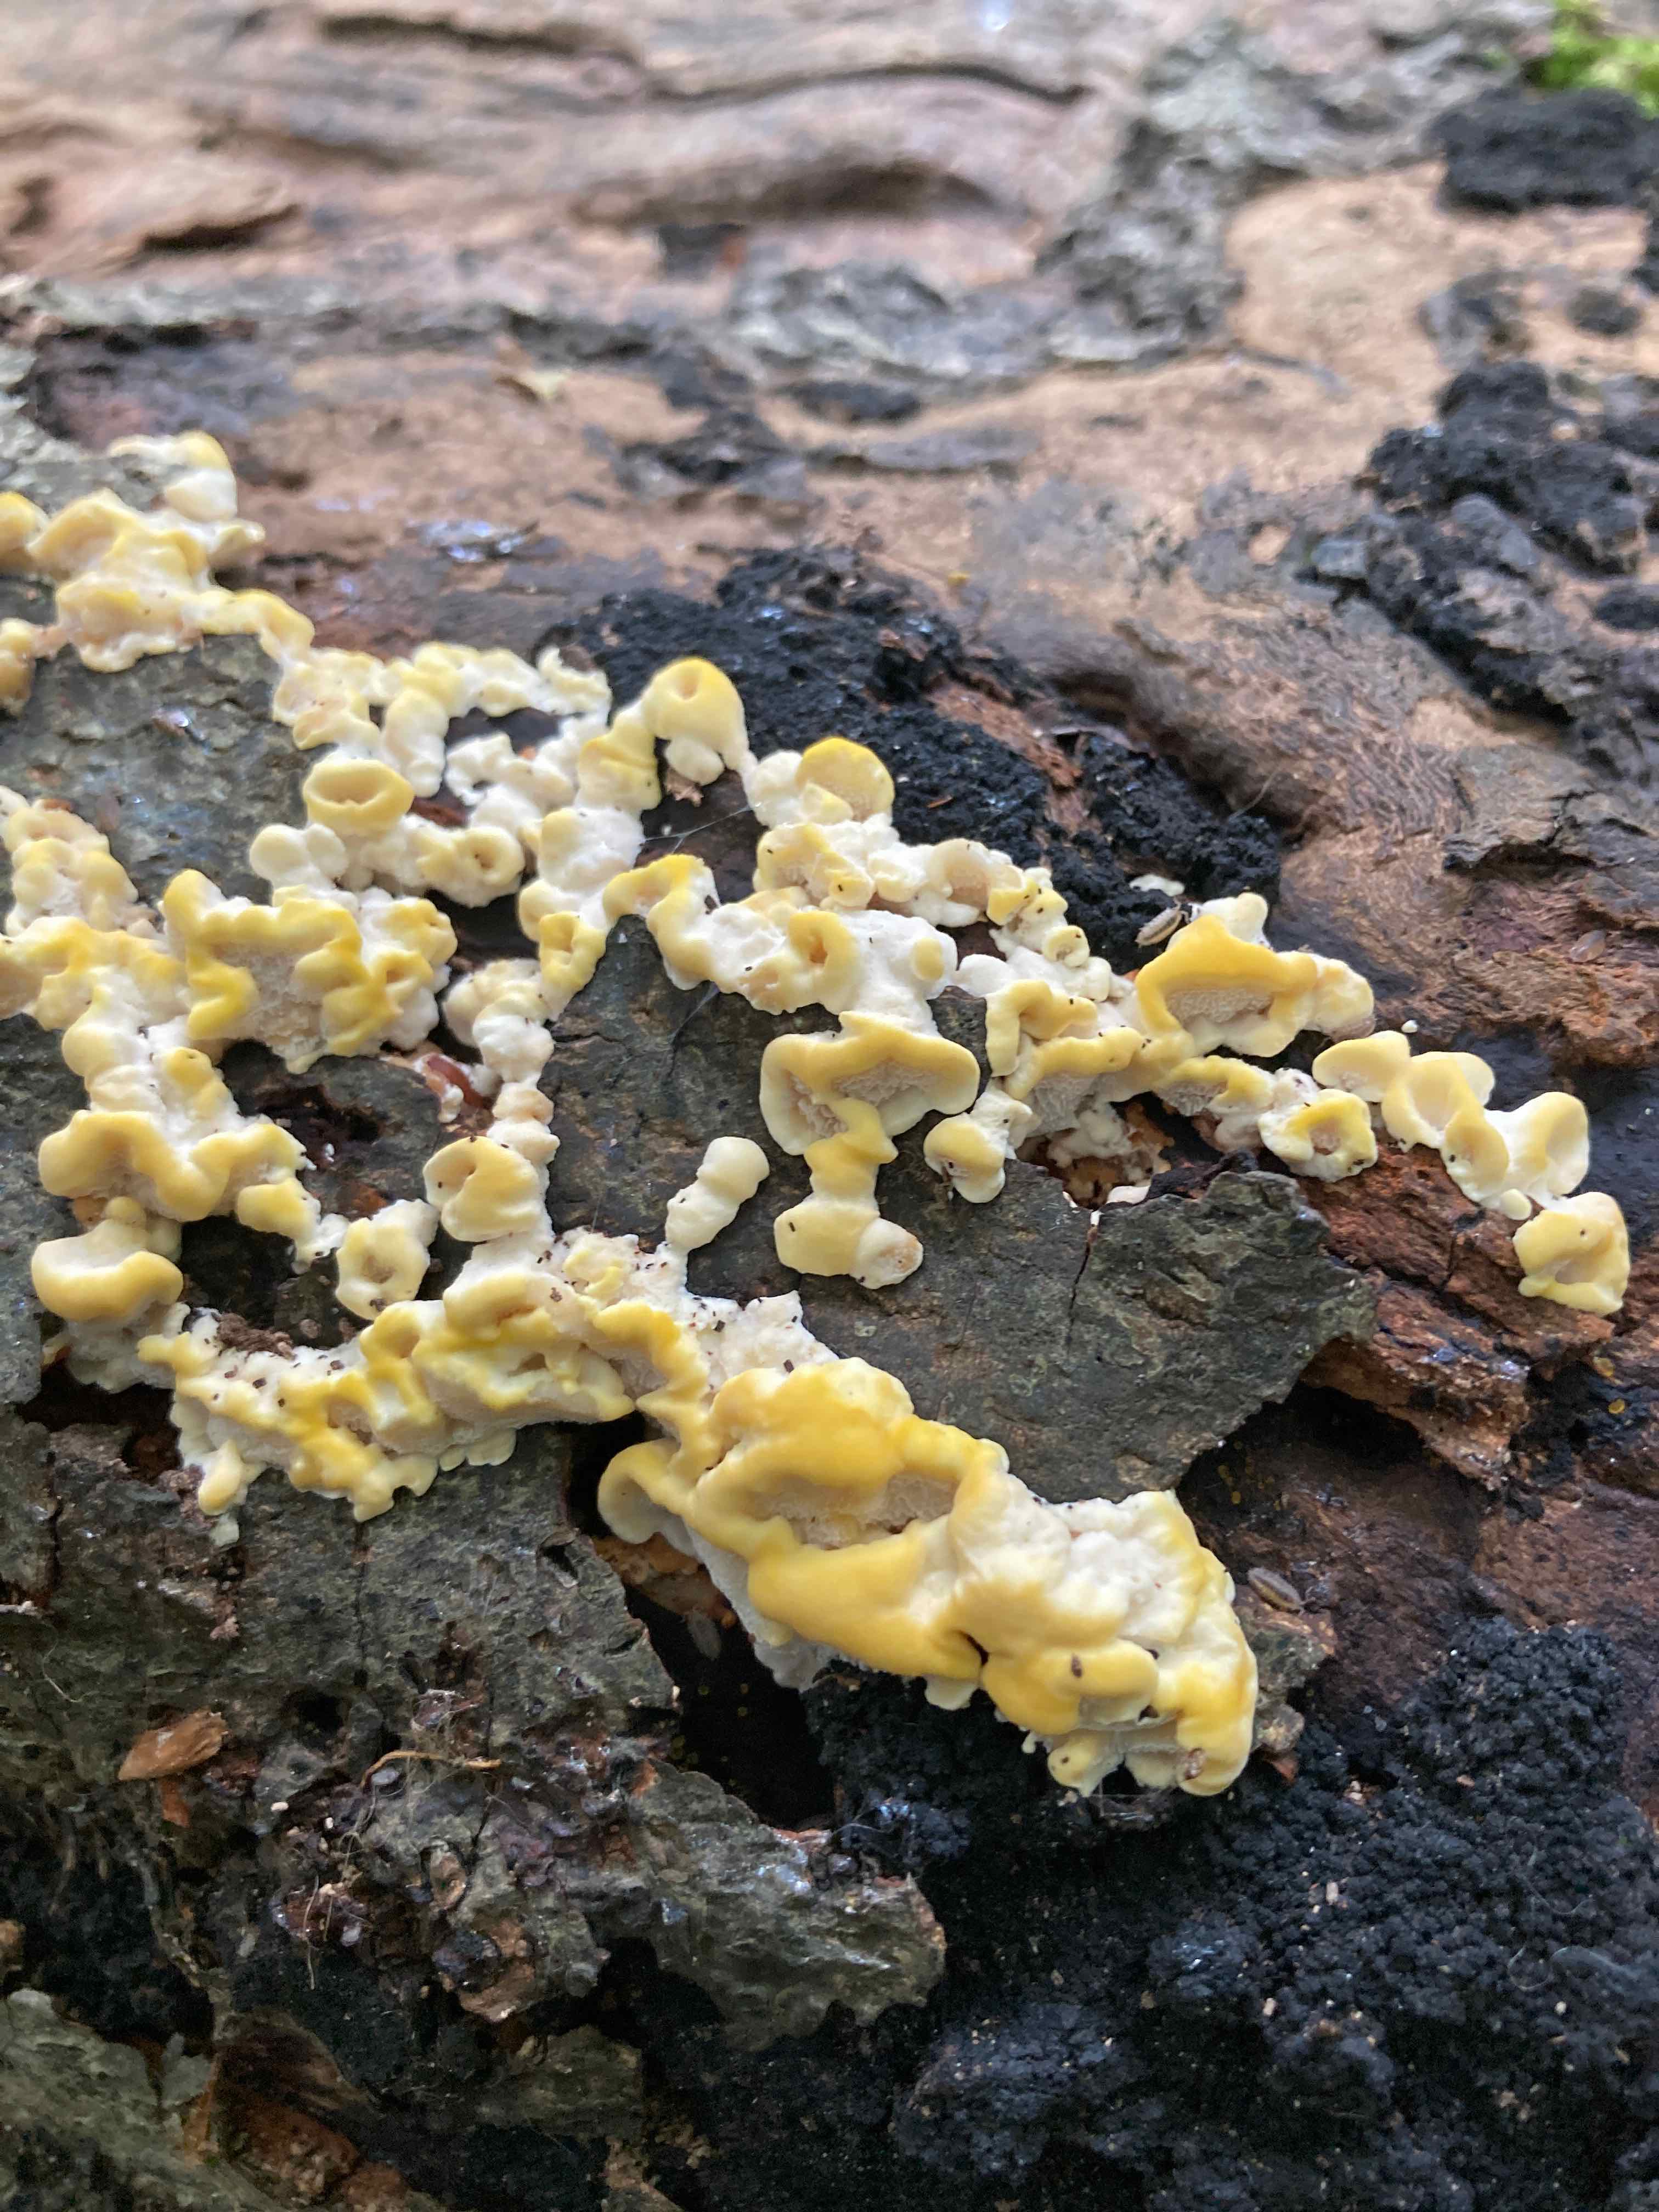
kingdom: Fungi
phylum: Basidiomycota
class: Agaricomycetes
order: Polyporales
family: Steccherinaceae
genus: Antrodiella
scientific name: Antrodiella serpula
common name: gulrandet elastikporesvamp
